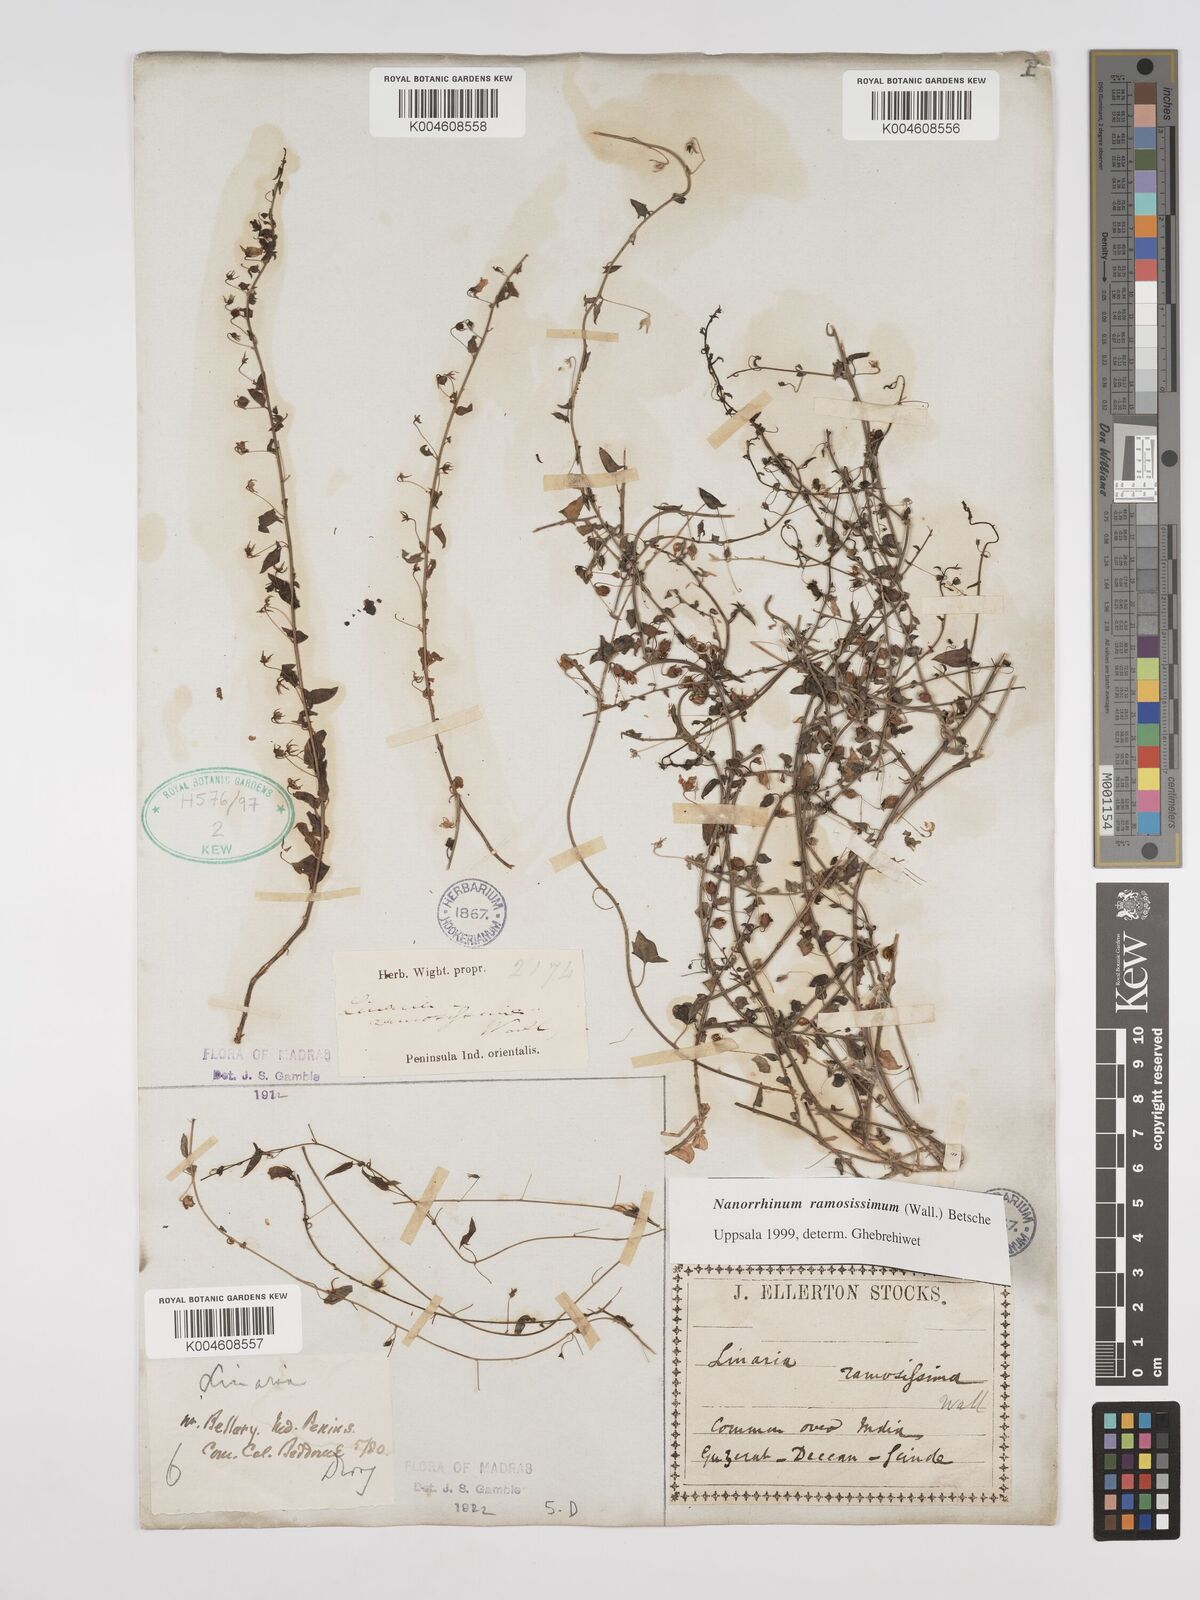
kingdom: Plantae
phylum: Tracheophyta
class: Magnoliopsida
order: Lamiales
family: Plantaginaceae
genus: Nanorrhinum
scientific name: Nanorrhinum ramosissimum
